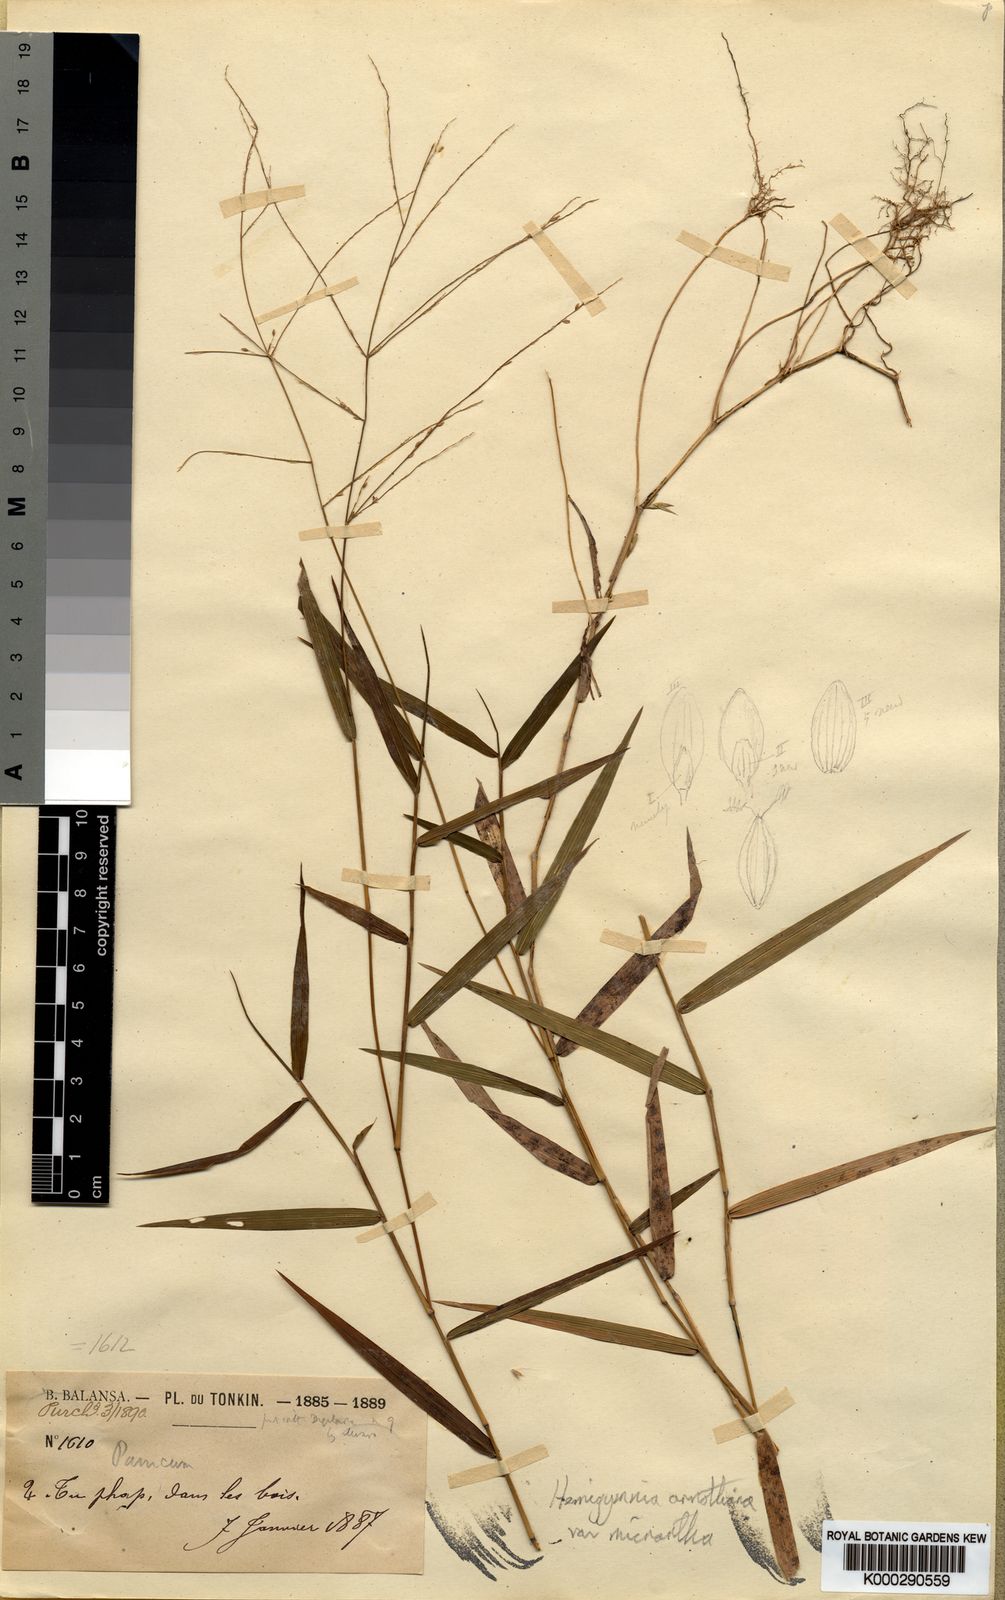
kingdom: Plantae
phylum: Tracheophyta
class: Liliopsida
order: Poales
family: Poaceae
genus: Ottochloa
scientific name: Ottochloa nodosa
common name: Slender-panic grass
